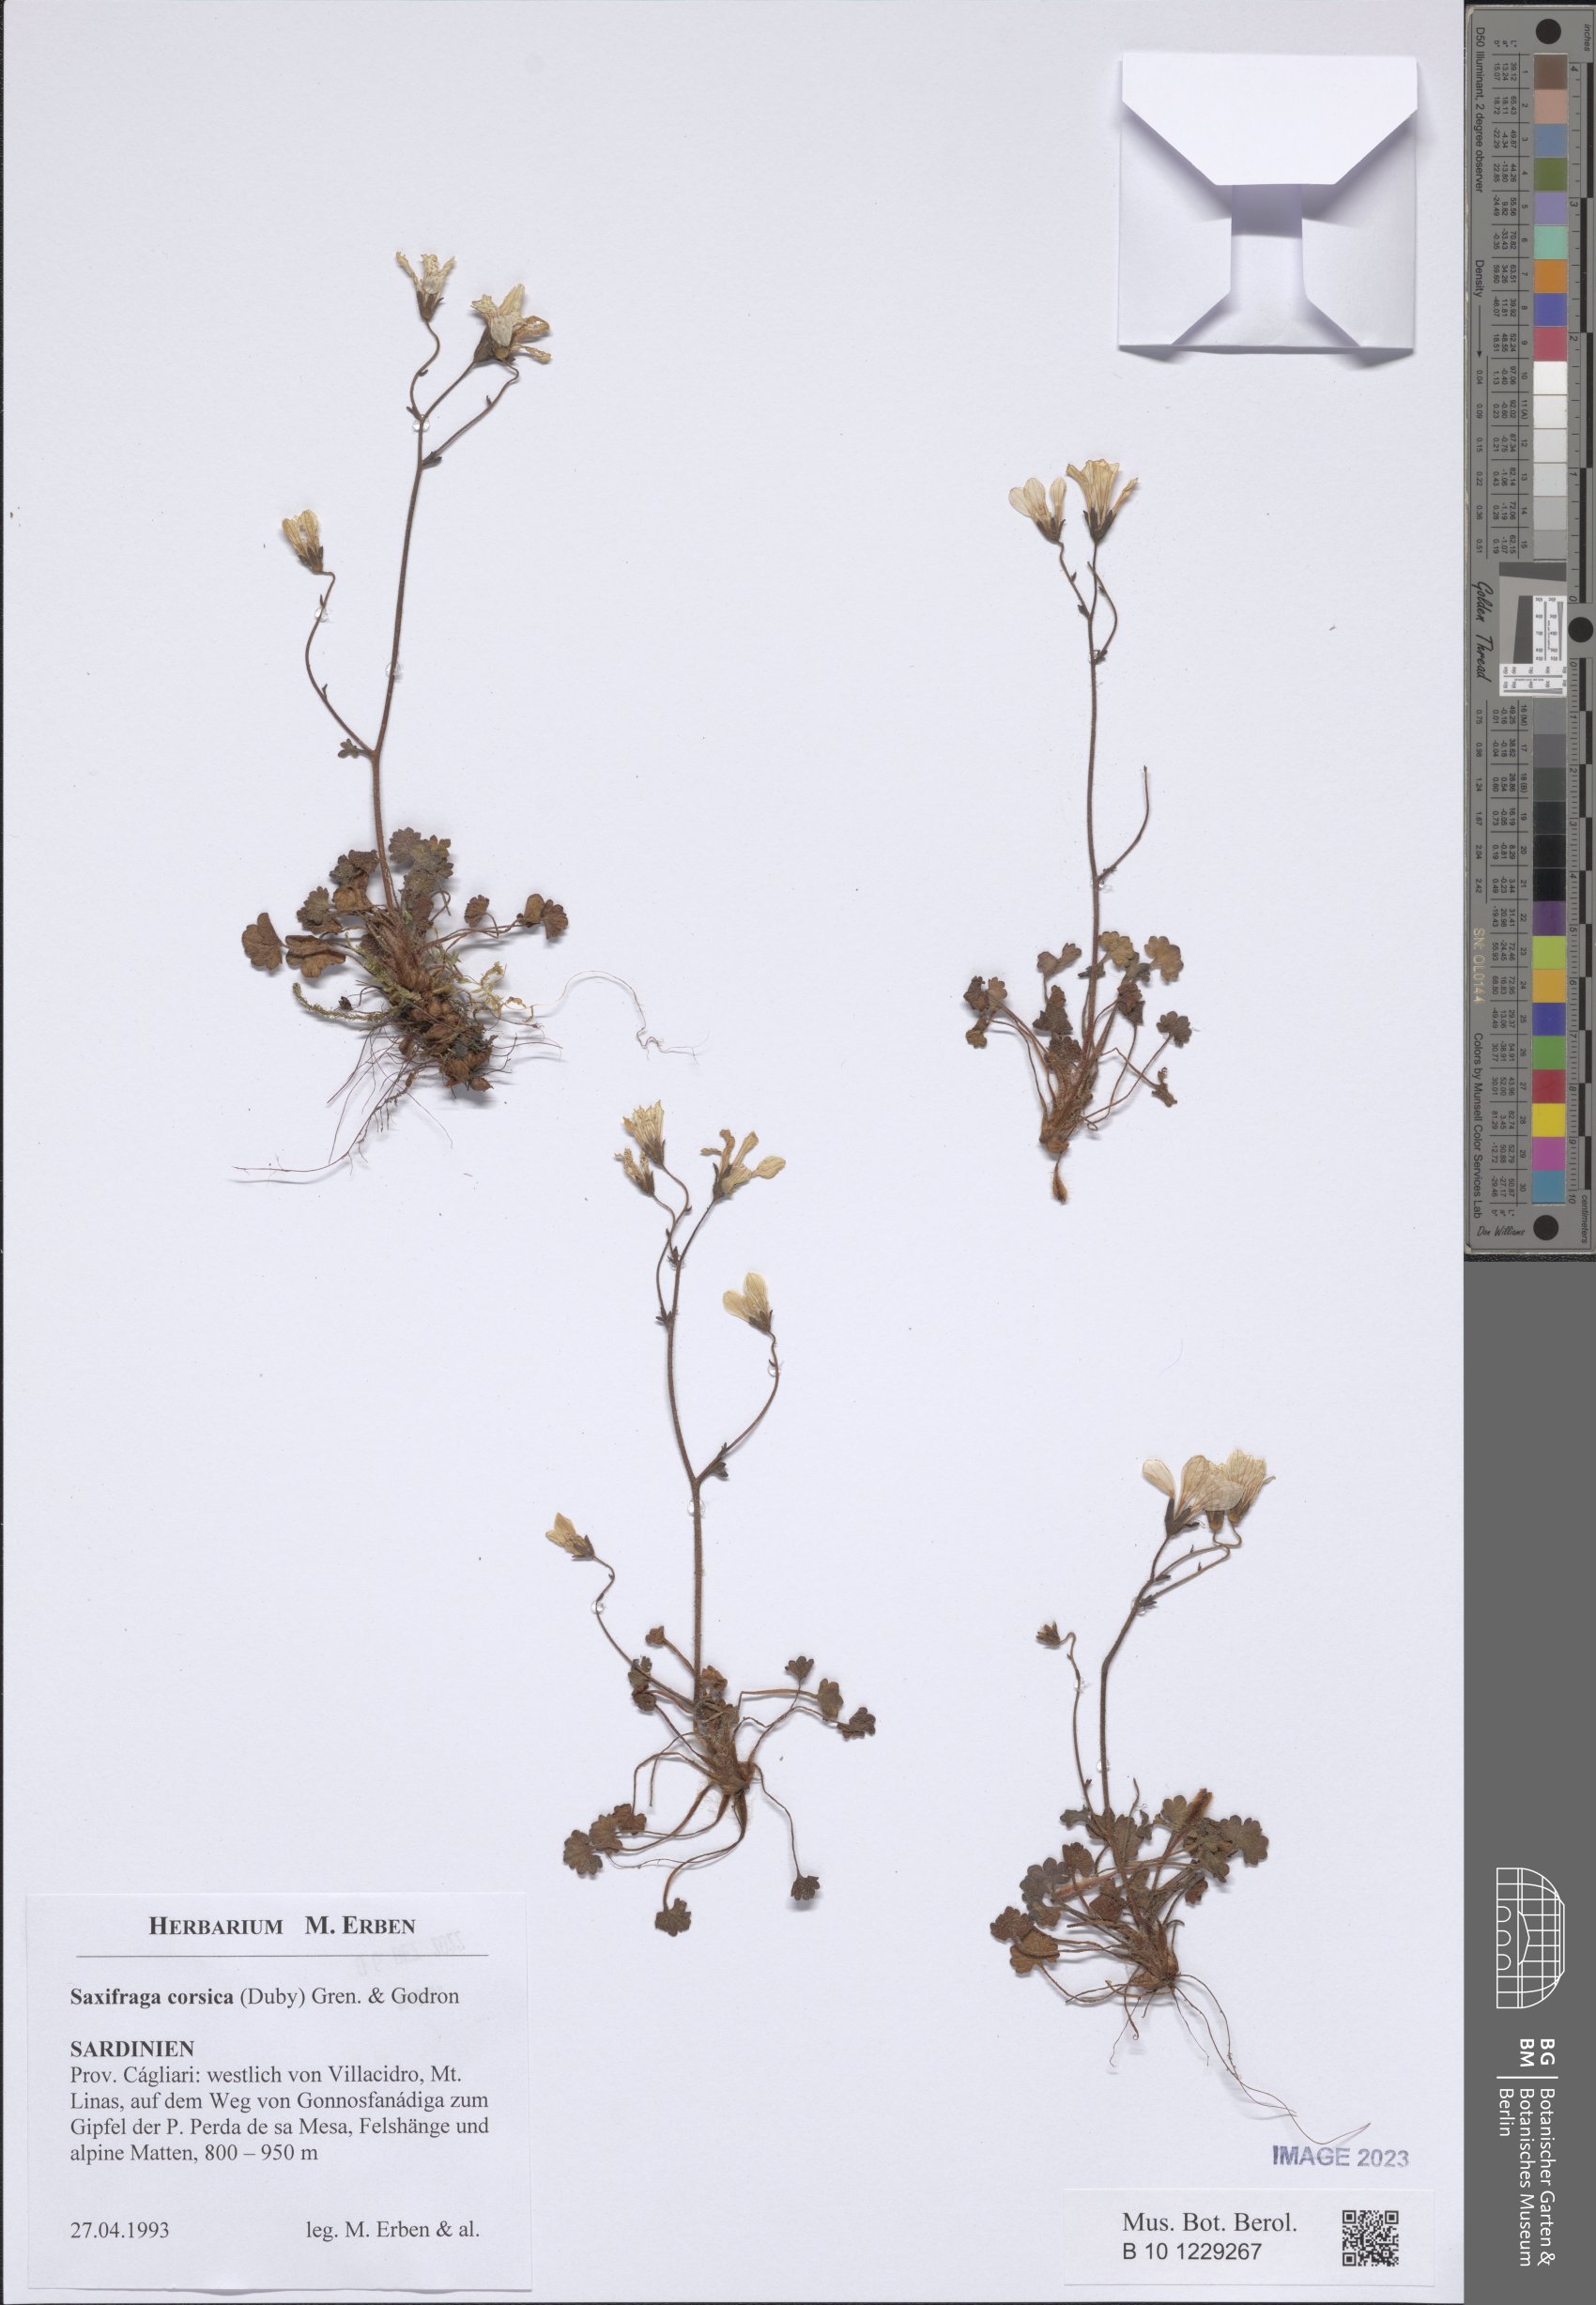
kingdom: Plantae
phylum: Tracheophyta
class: Magnoliopsida
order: Saxifragales
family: Saxifragaceae
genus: Saxifraga
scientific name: Saxifraga corsica
